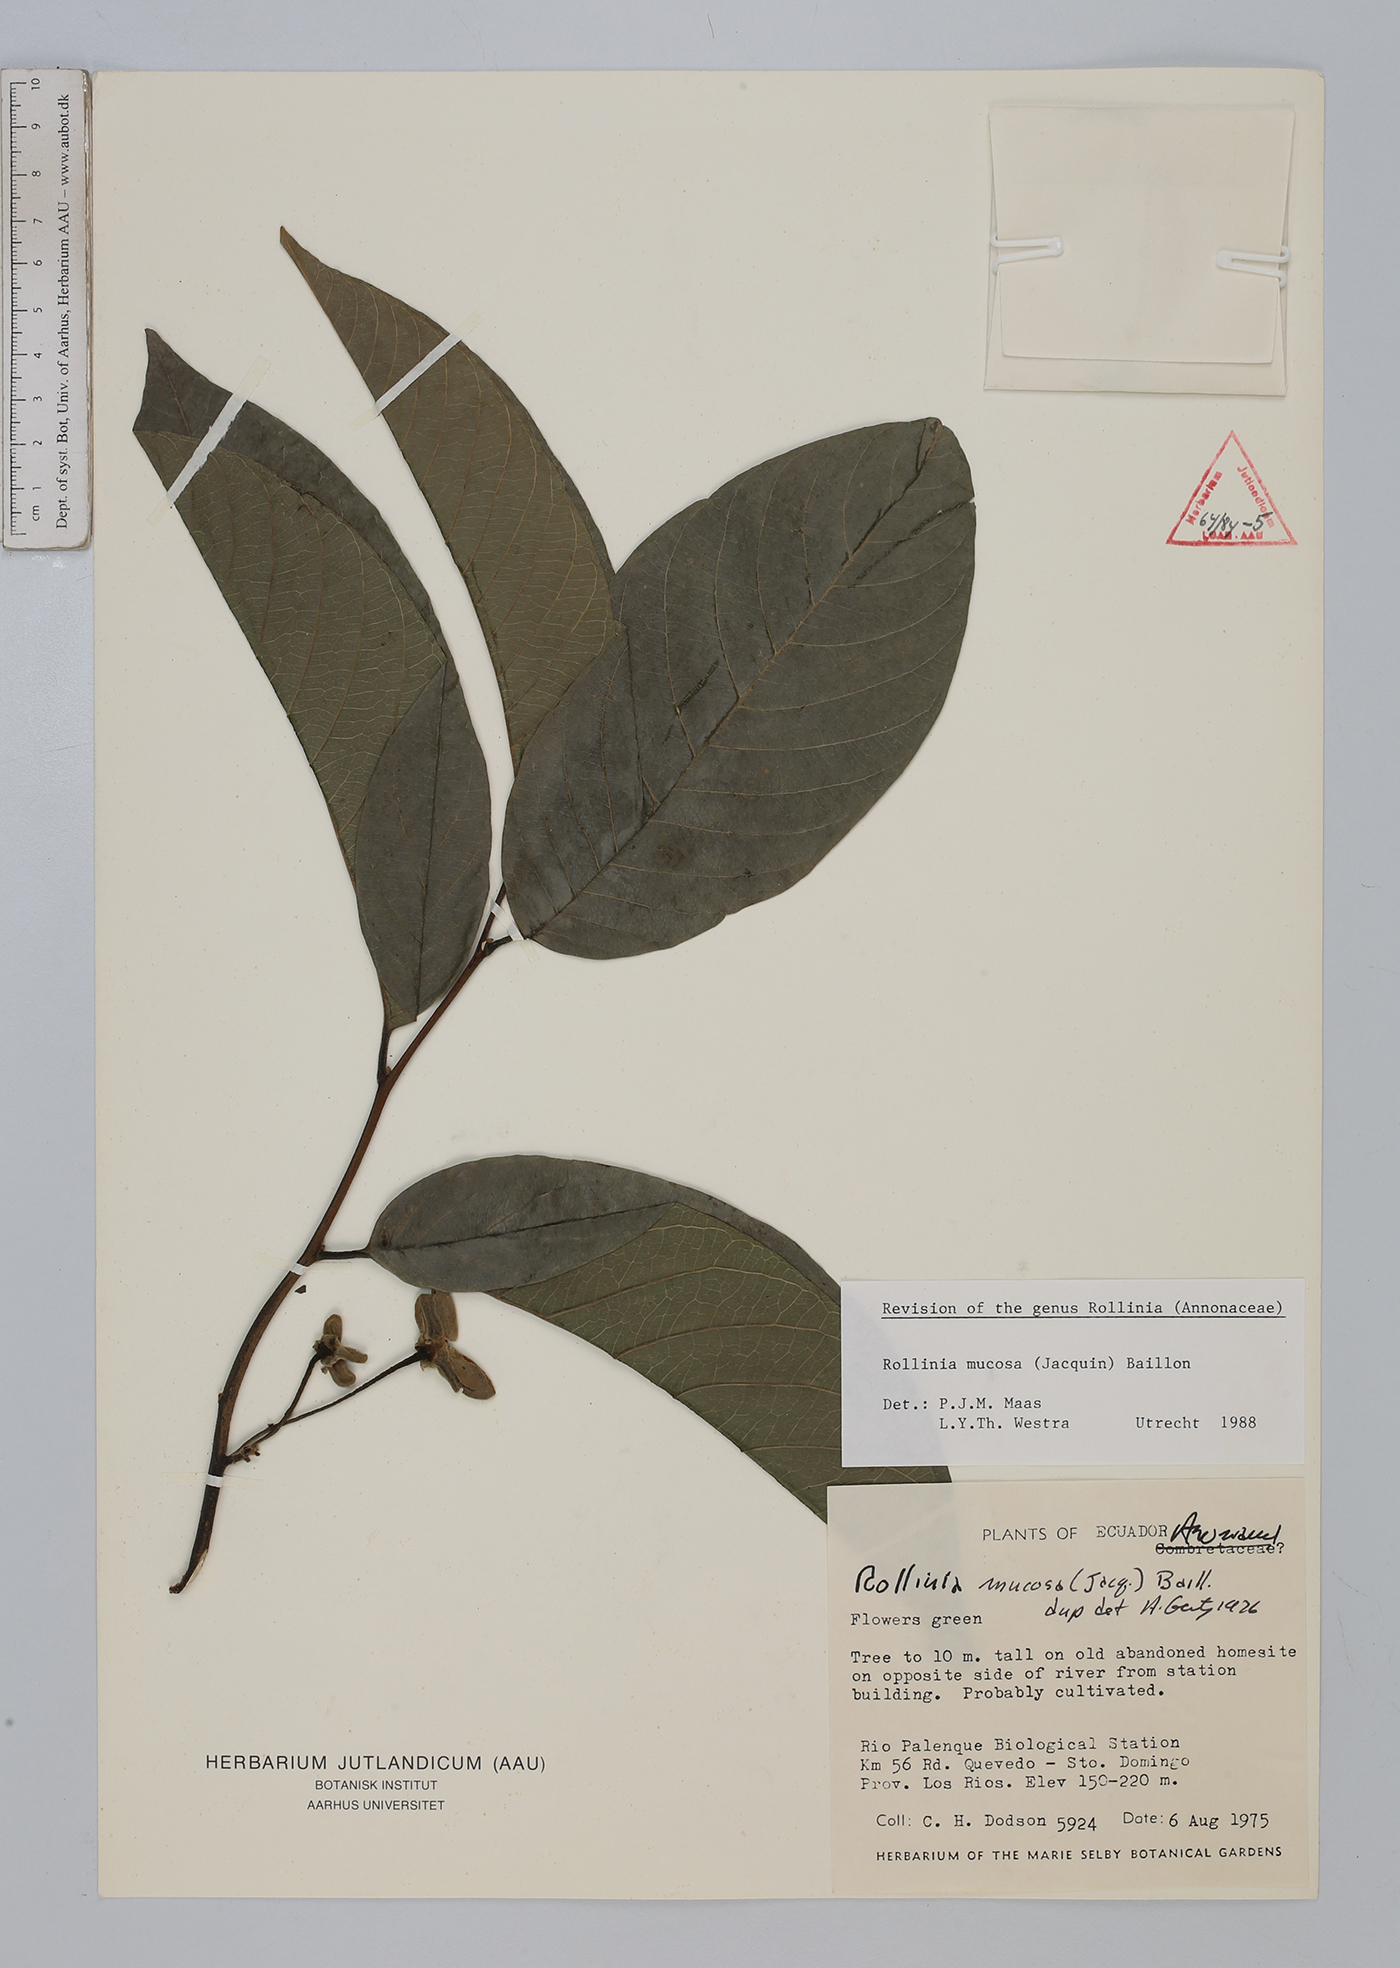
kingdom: Plantae
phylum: Tracheophyta
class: Magnoliopsida
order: Magnoliales
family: Annonaceae
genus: Annona
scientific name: Annona mucosa
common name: Sugar apple
